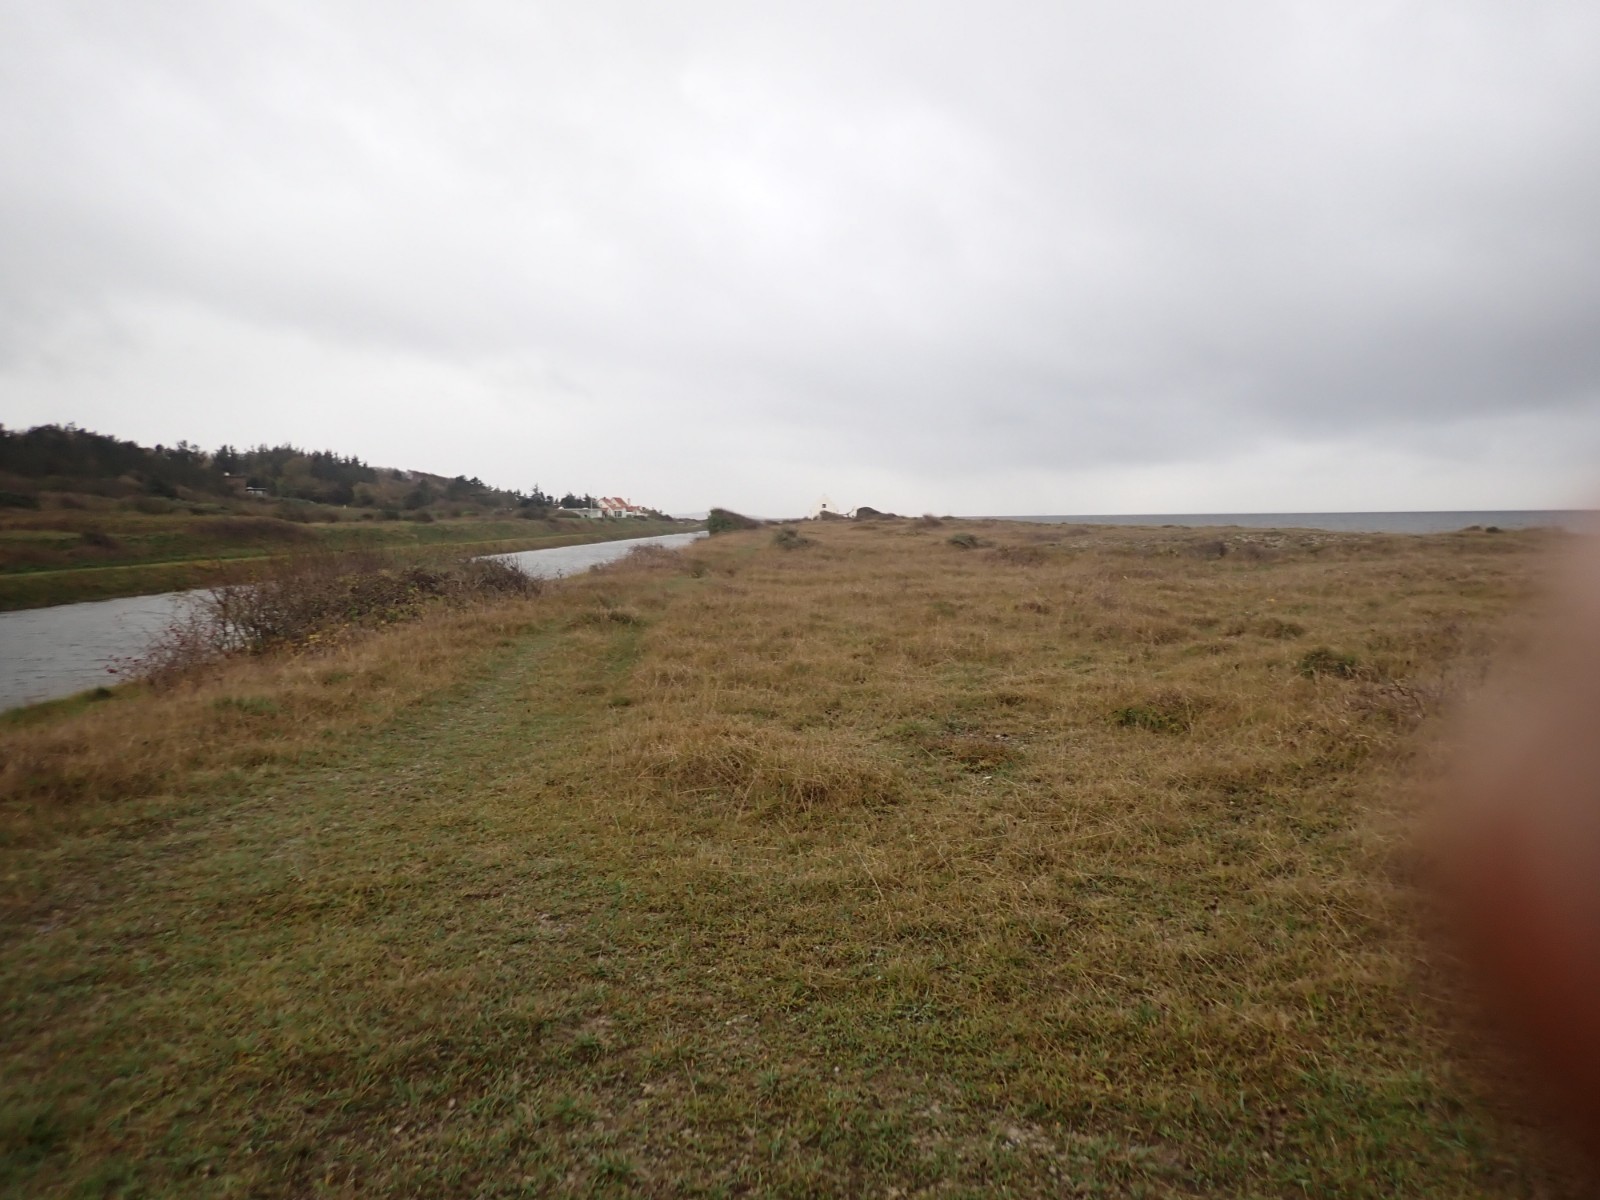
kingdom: Fungi
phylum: Basidiomycota
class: Agaricomycetes
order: Agaricales
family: Hygrophoraceae
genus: Hygrocybe
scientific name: Hygrocybe calciphila
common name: kalk-vokshat
